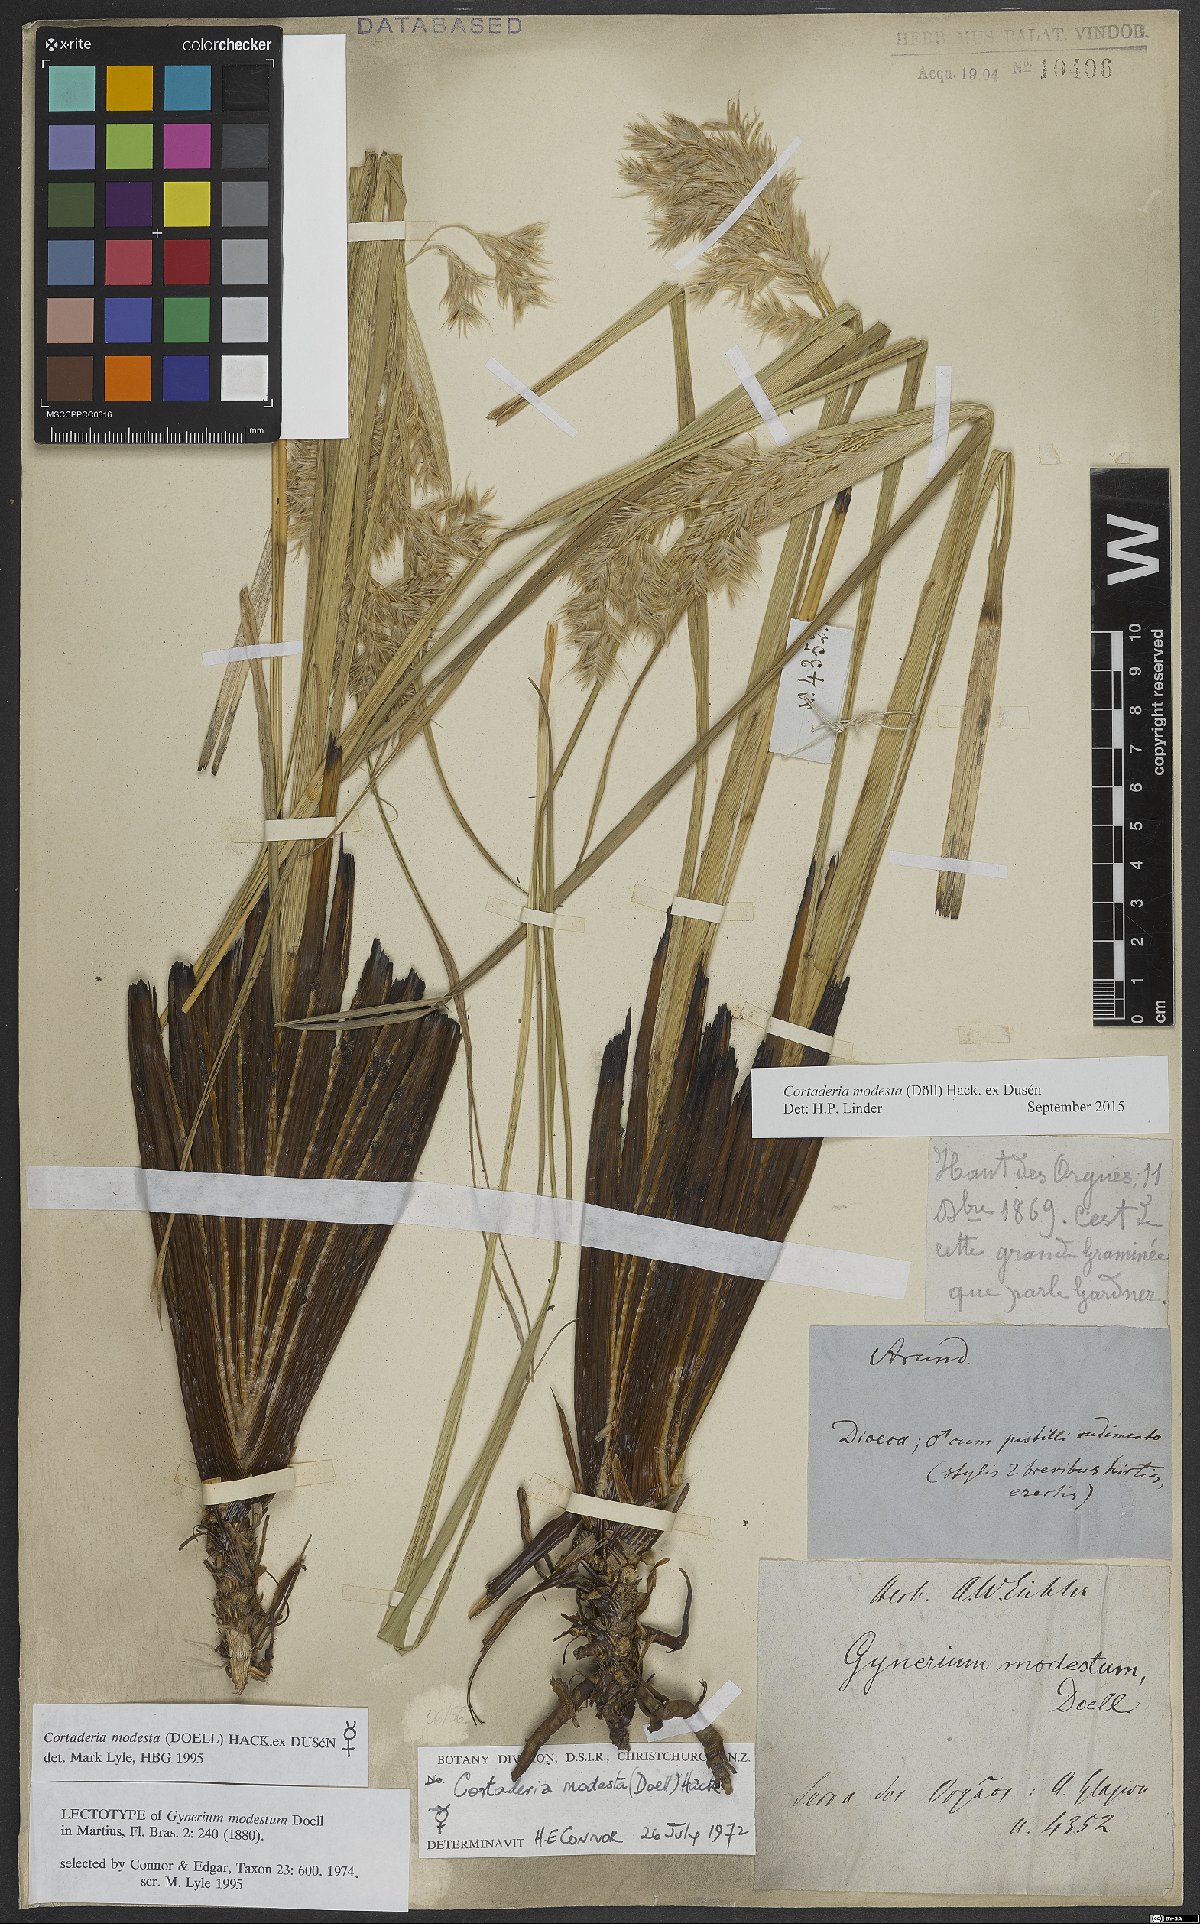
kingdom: Plantae
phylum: Tracheophyta
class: Liliopsida
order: Poales
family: Poaceae
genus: Cortaderia
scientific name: Cortaderia modesta
